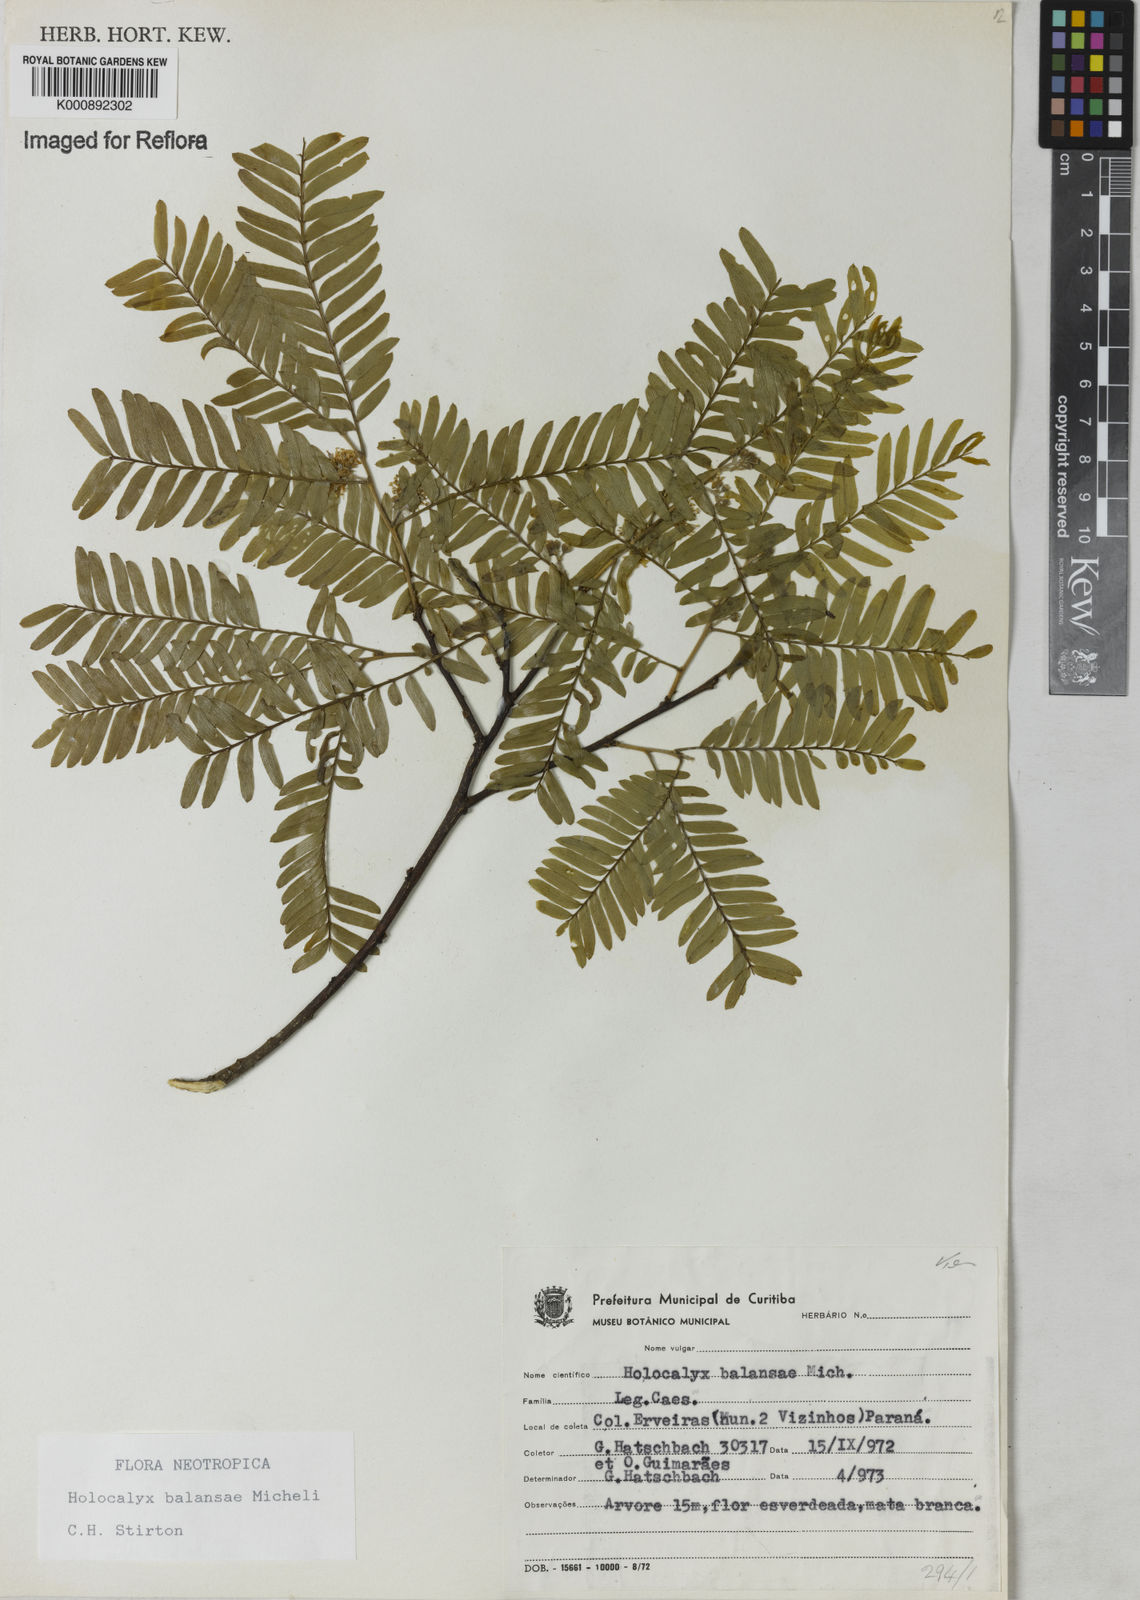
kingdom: Plantae
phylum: Tracheophyta
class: Magnoliopsida
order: Fabales
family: Fabaceae
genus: Holocalyx
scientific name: Holocalyx
